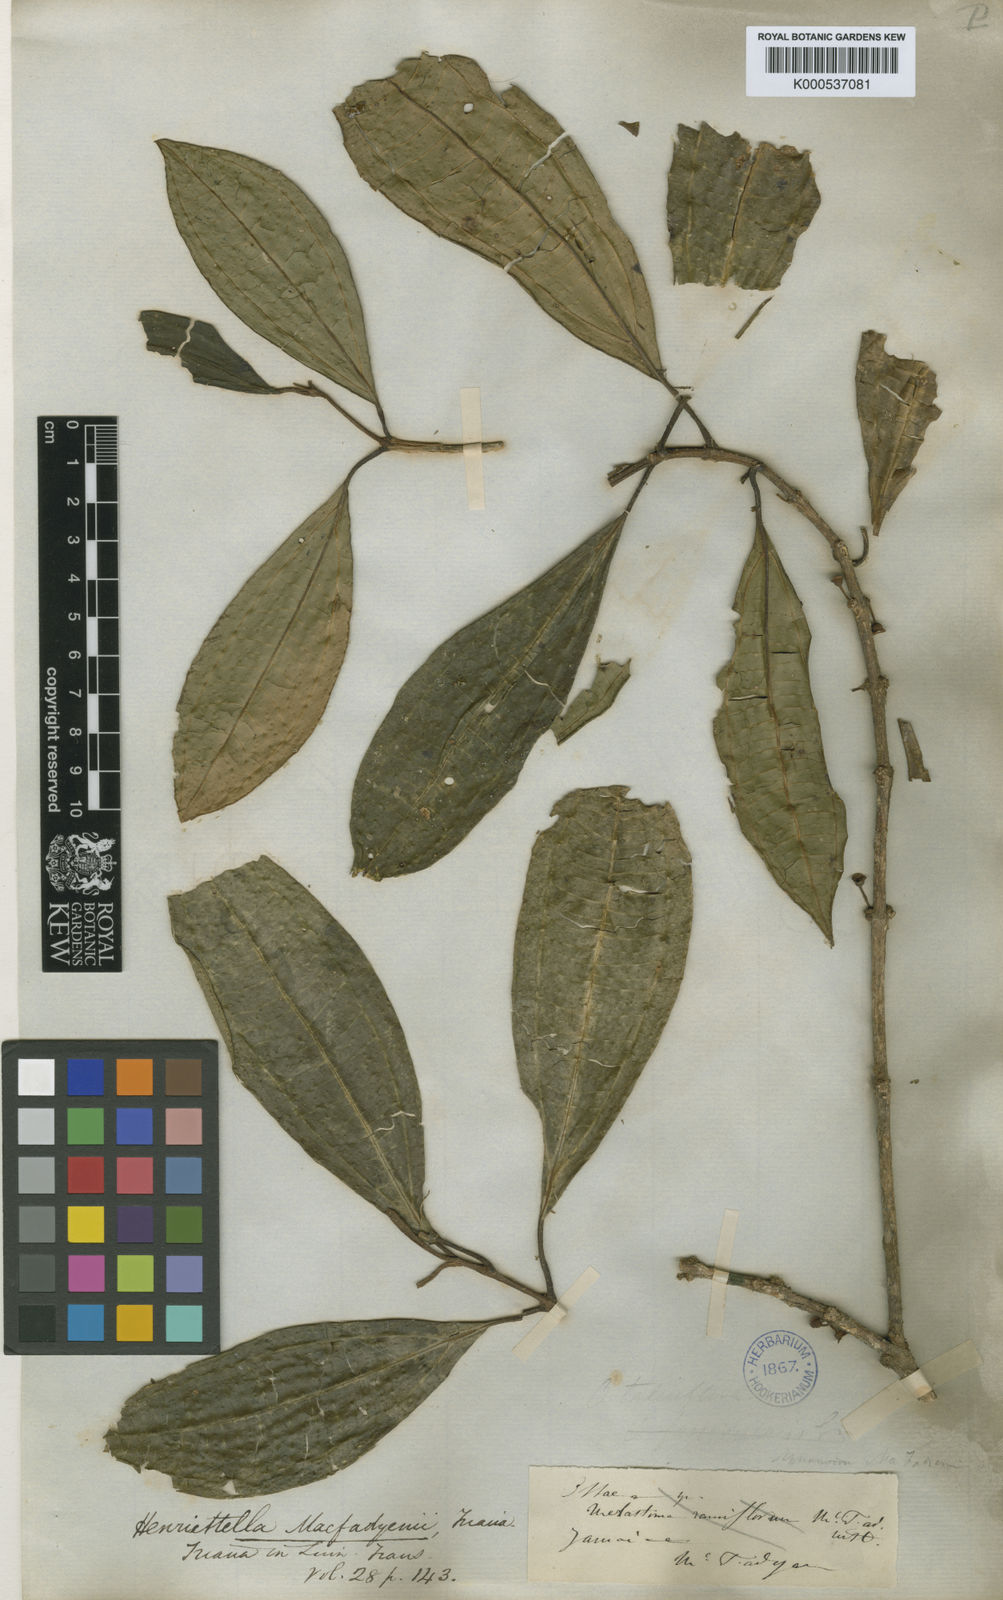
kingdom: Plantae
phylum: Tracheophyta
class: Magnoliopsida
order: Myrtales
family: Melastomataceae
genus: Henriettea
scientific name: Henriettea macfadyenii
